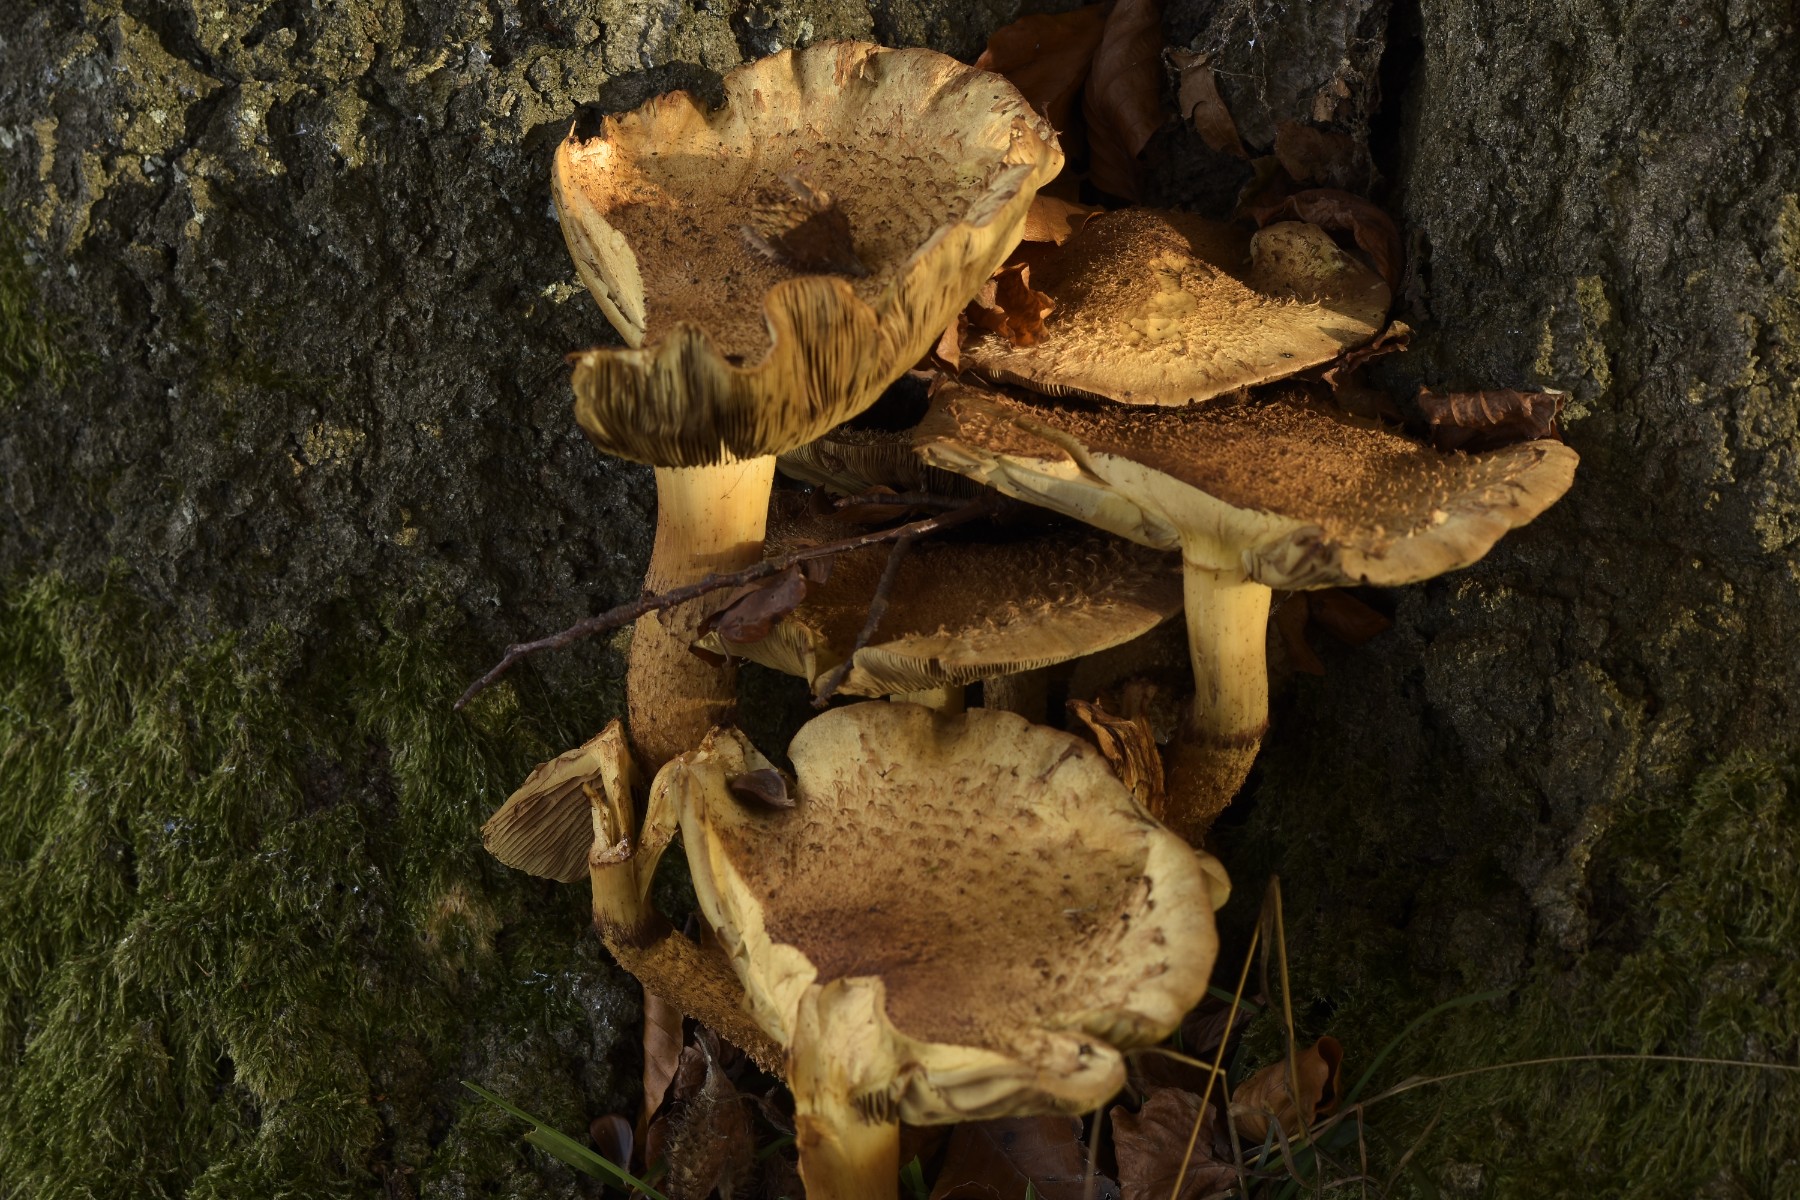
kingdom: Fungi
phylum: Basidiomycota
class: Agaricomycetes
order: Agaricales
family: Strophariaceae
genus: Pholiota
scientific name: Pholiota squarrosa
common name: krumskællet skælhat
